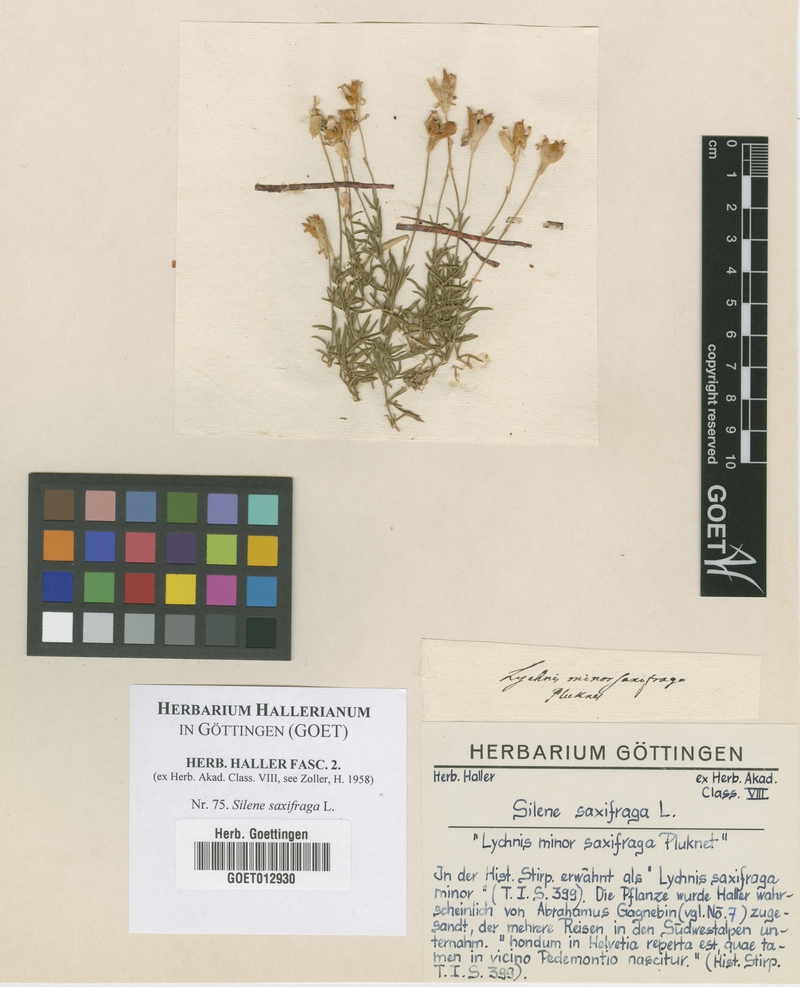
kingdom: Plantae
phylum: Tracheophyta
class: Magnoliopsida
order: Caryophyllales
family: Caryophyllaceae
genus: Silene
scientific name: Silene saxifraga
